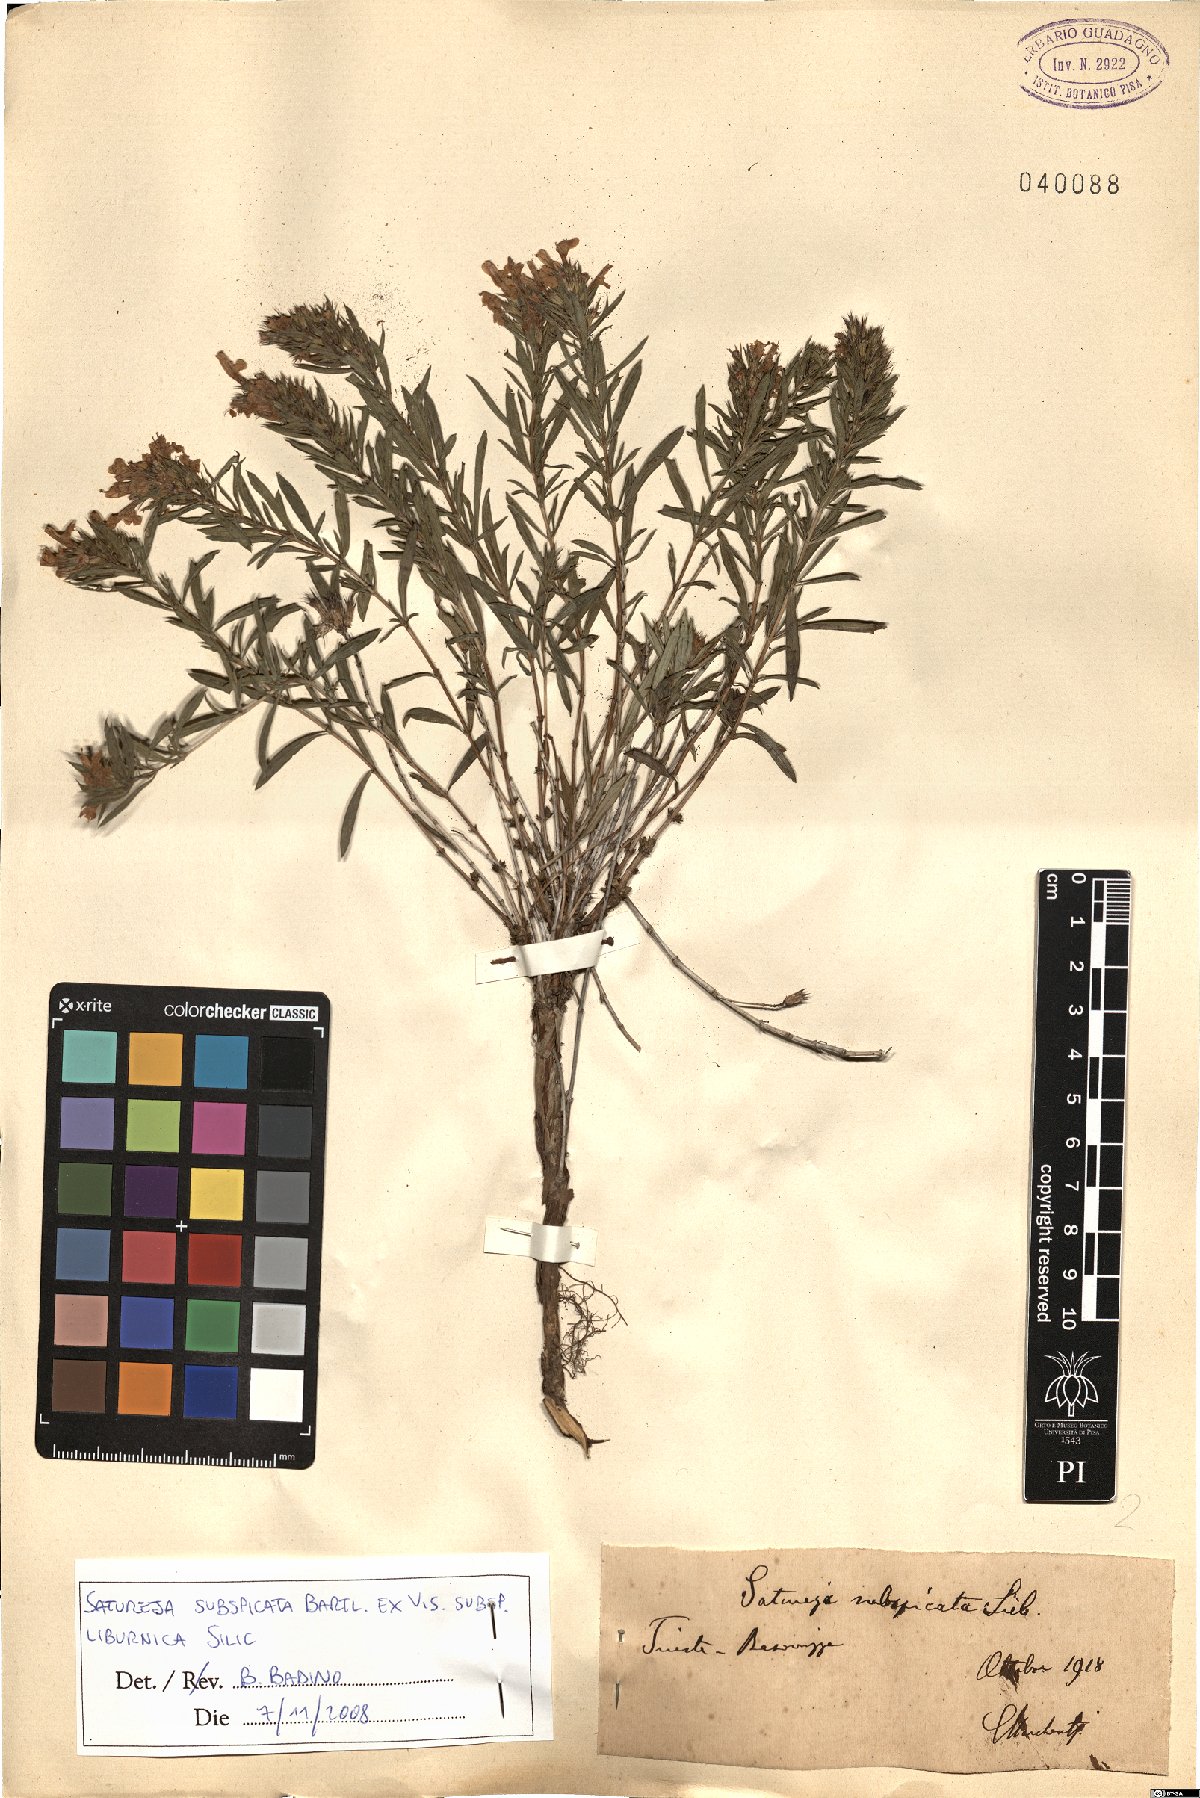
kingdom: Plantae
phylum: Tracheophyta
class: Magnoliopsida
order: Lamiales
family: Lamiaceae
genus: Satureja
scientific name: Satureja subspicata
